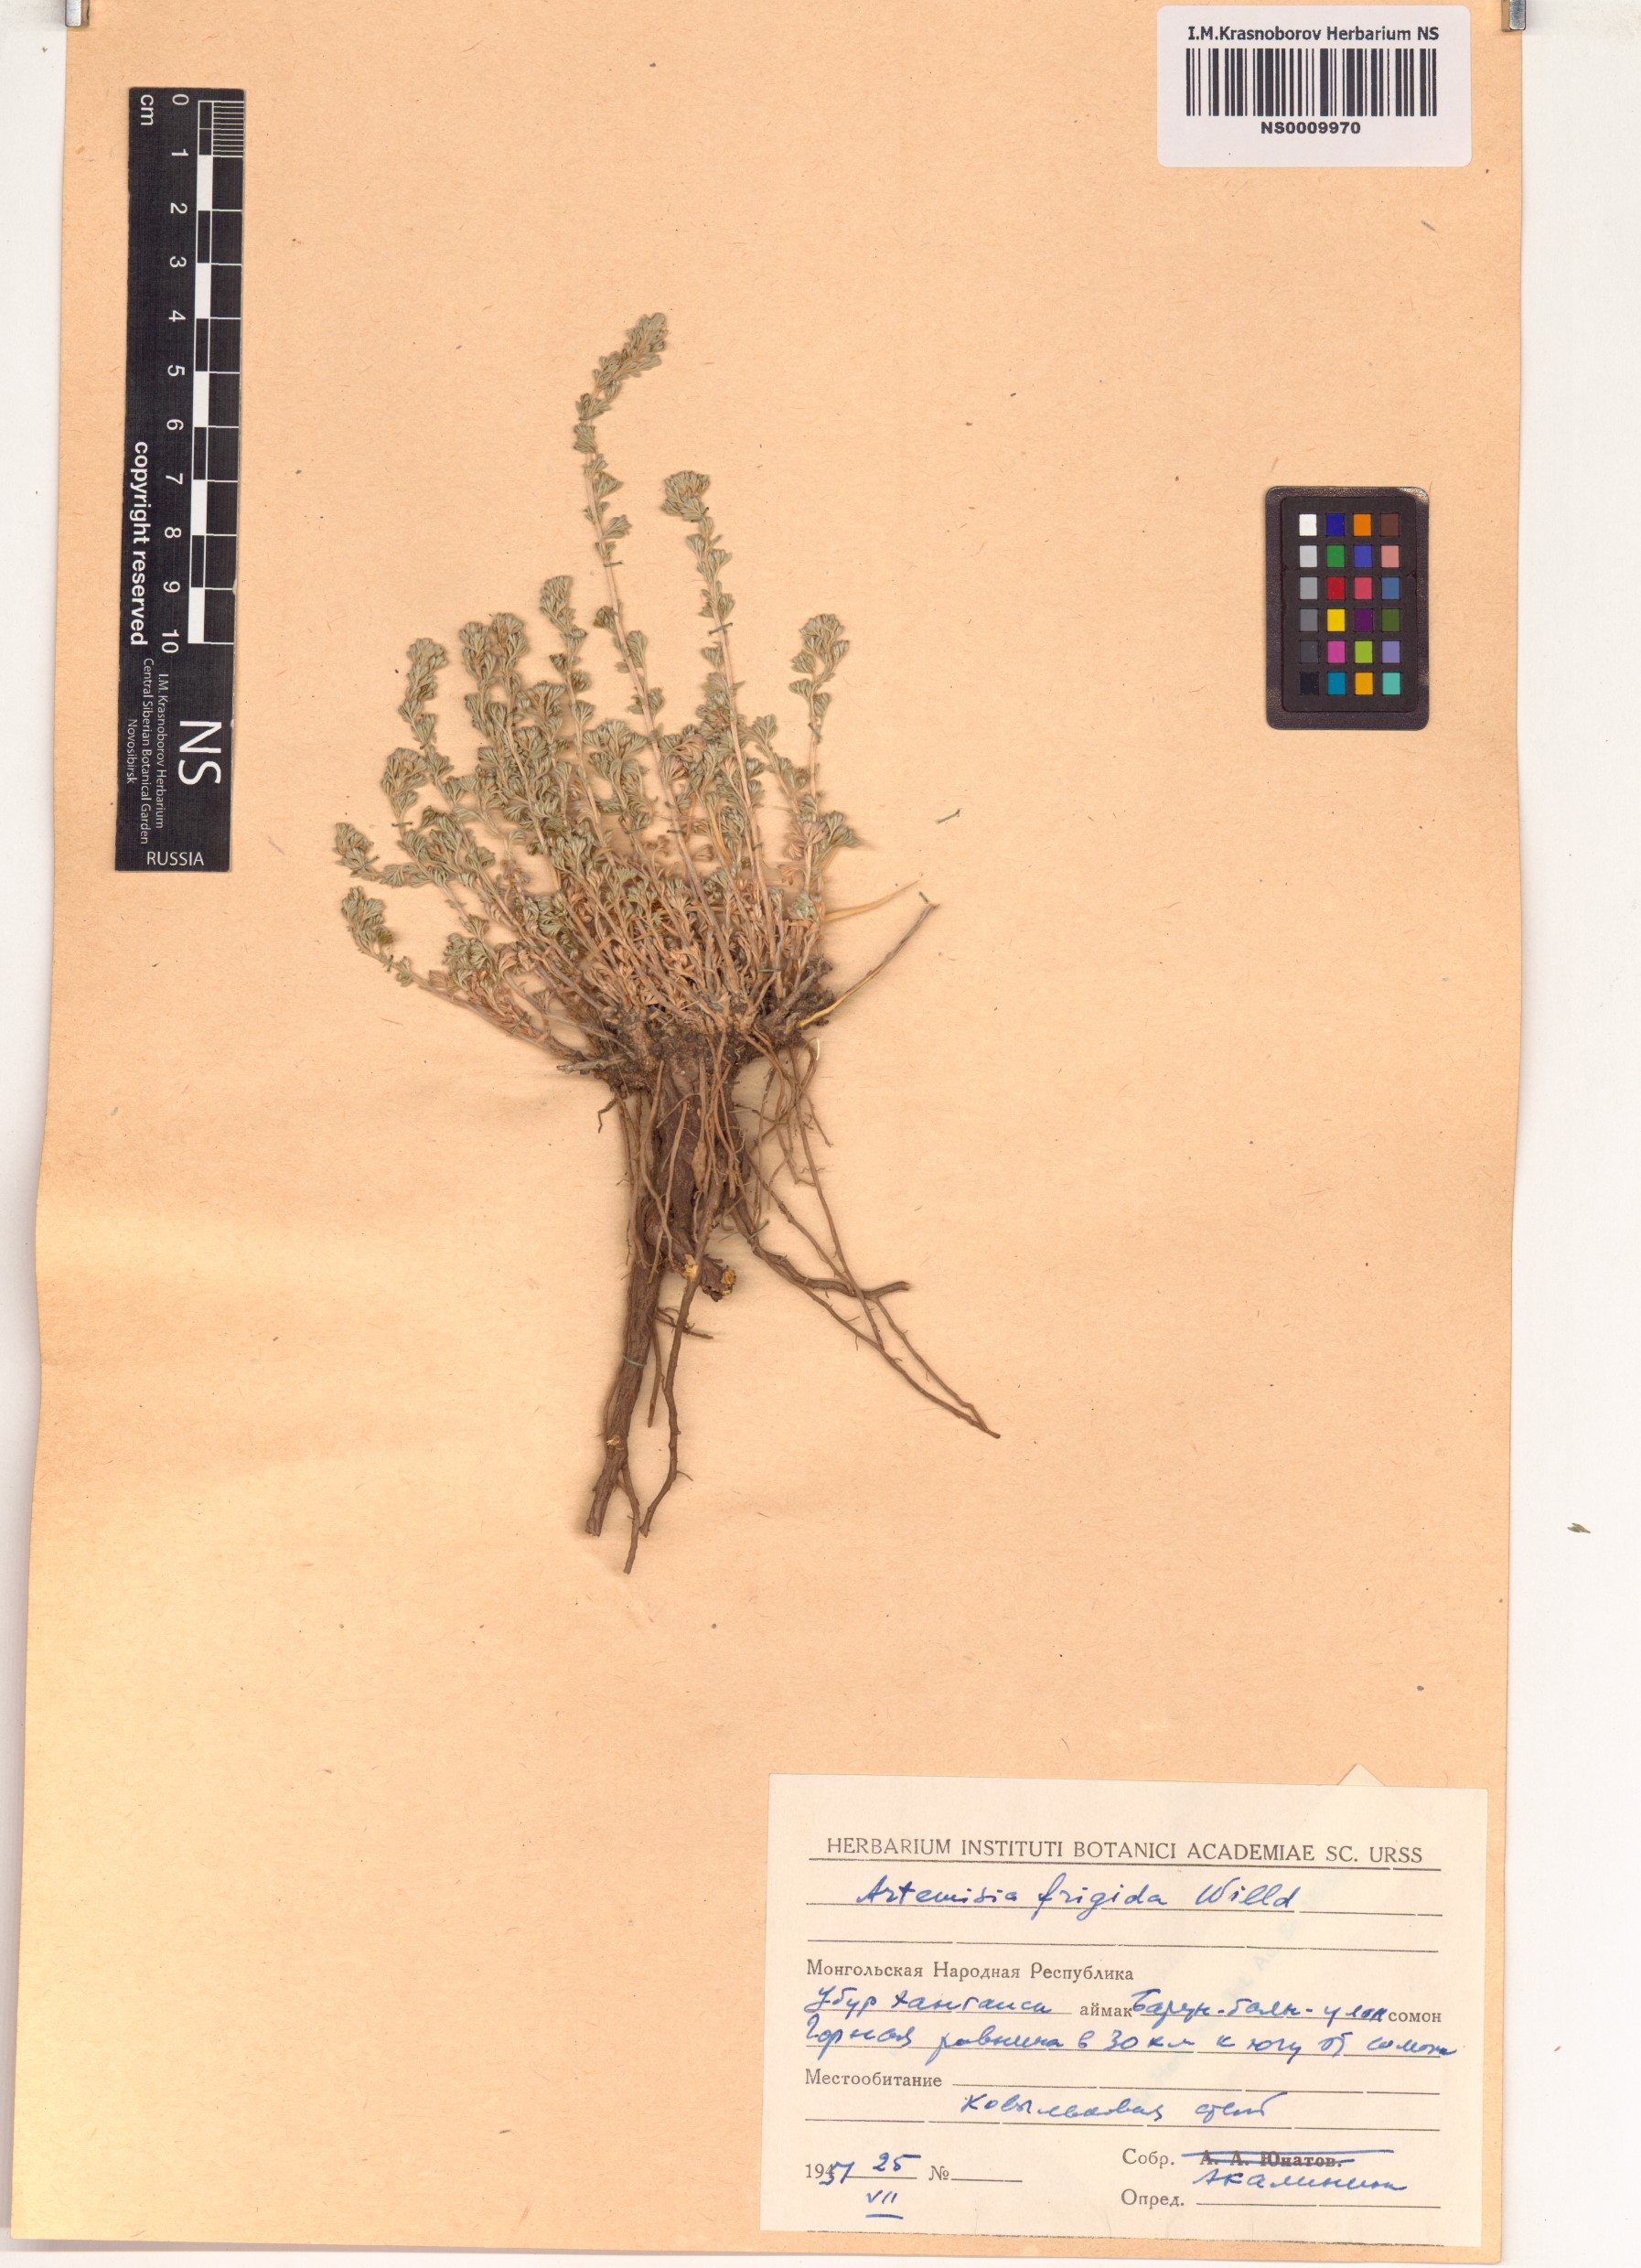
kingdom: Plantae
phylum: Tracheophyta
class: Magnoliopsida
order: Asterales
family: Asteraceae
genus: Artemisia
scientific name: Artemisia frigida
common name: Prairie sagewort
